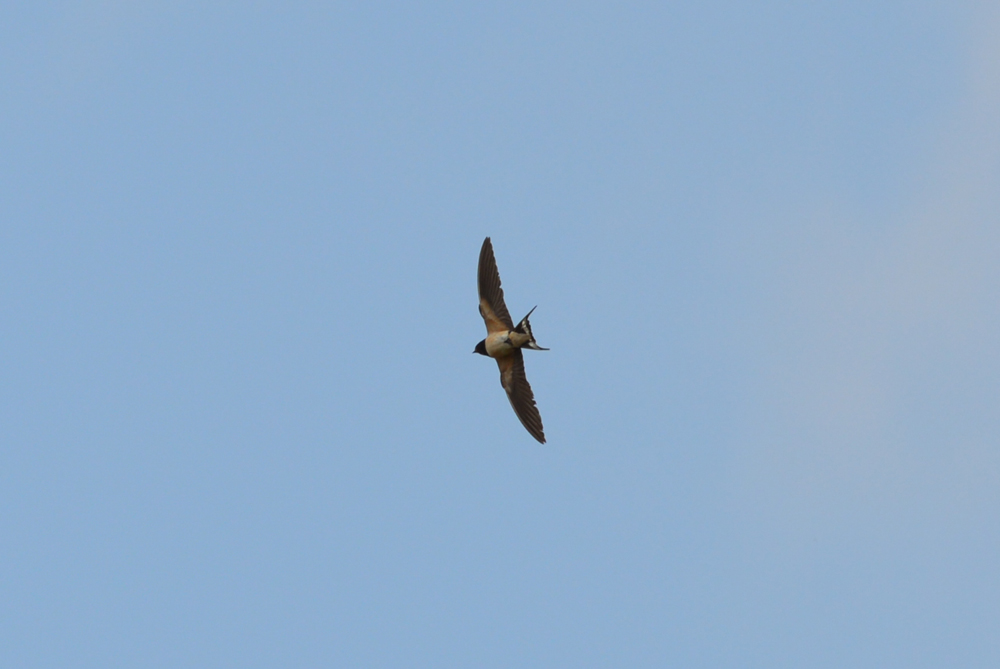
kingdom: Animalia
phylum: Chordata
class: Aves
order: Passeriformes
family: Hirundinidae
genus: Hirundo
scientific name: Hirundo rustica
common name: Barn swallow
